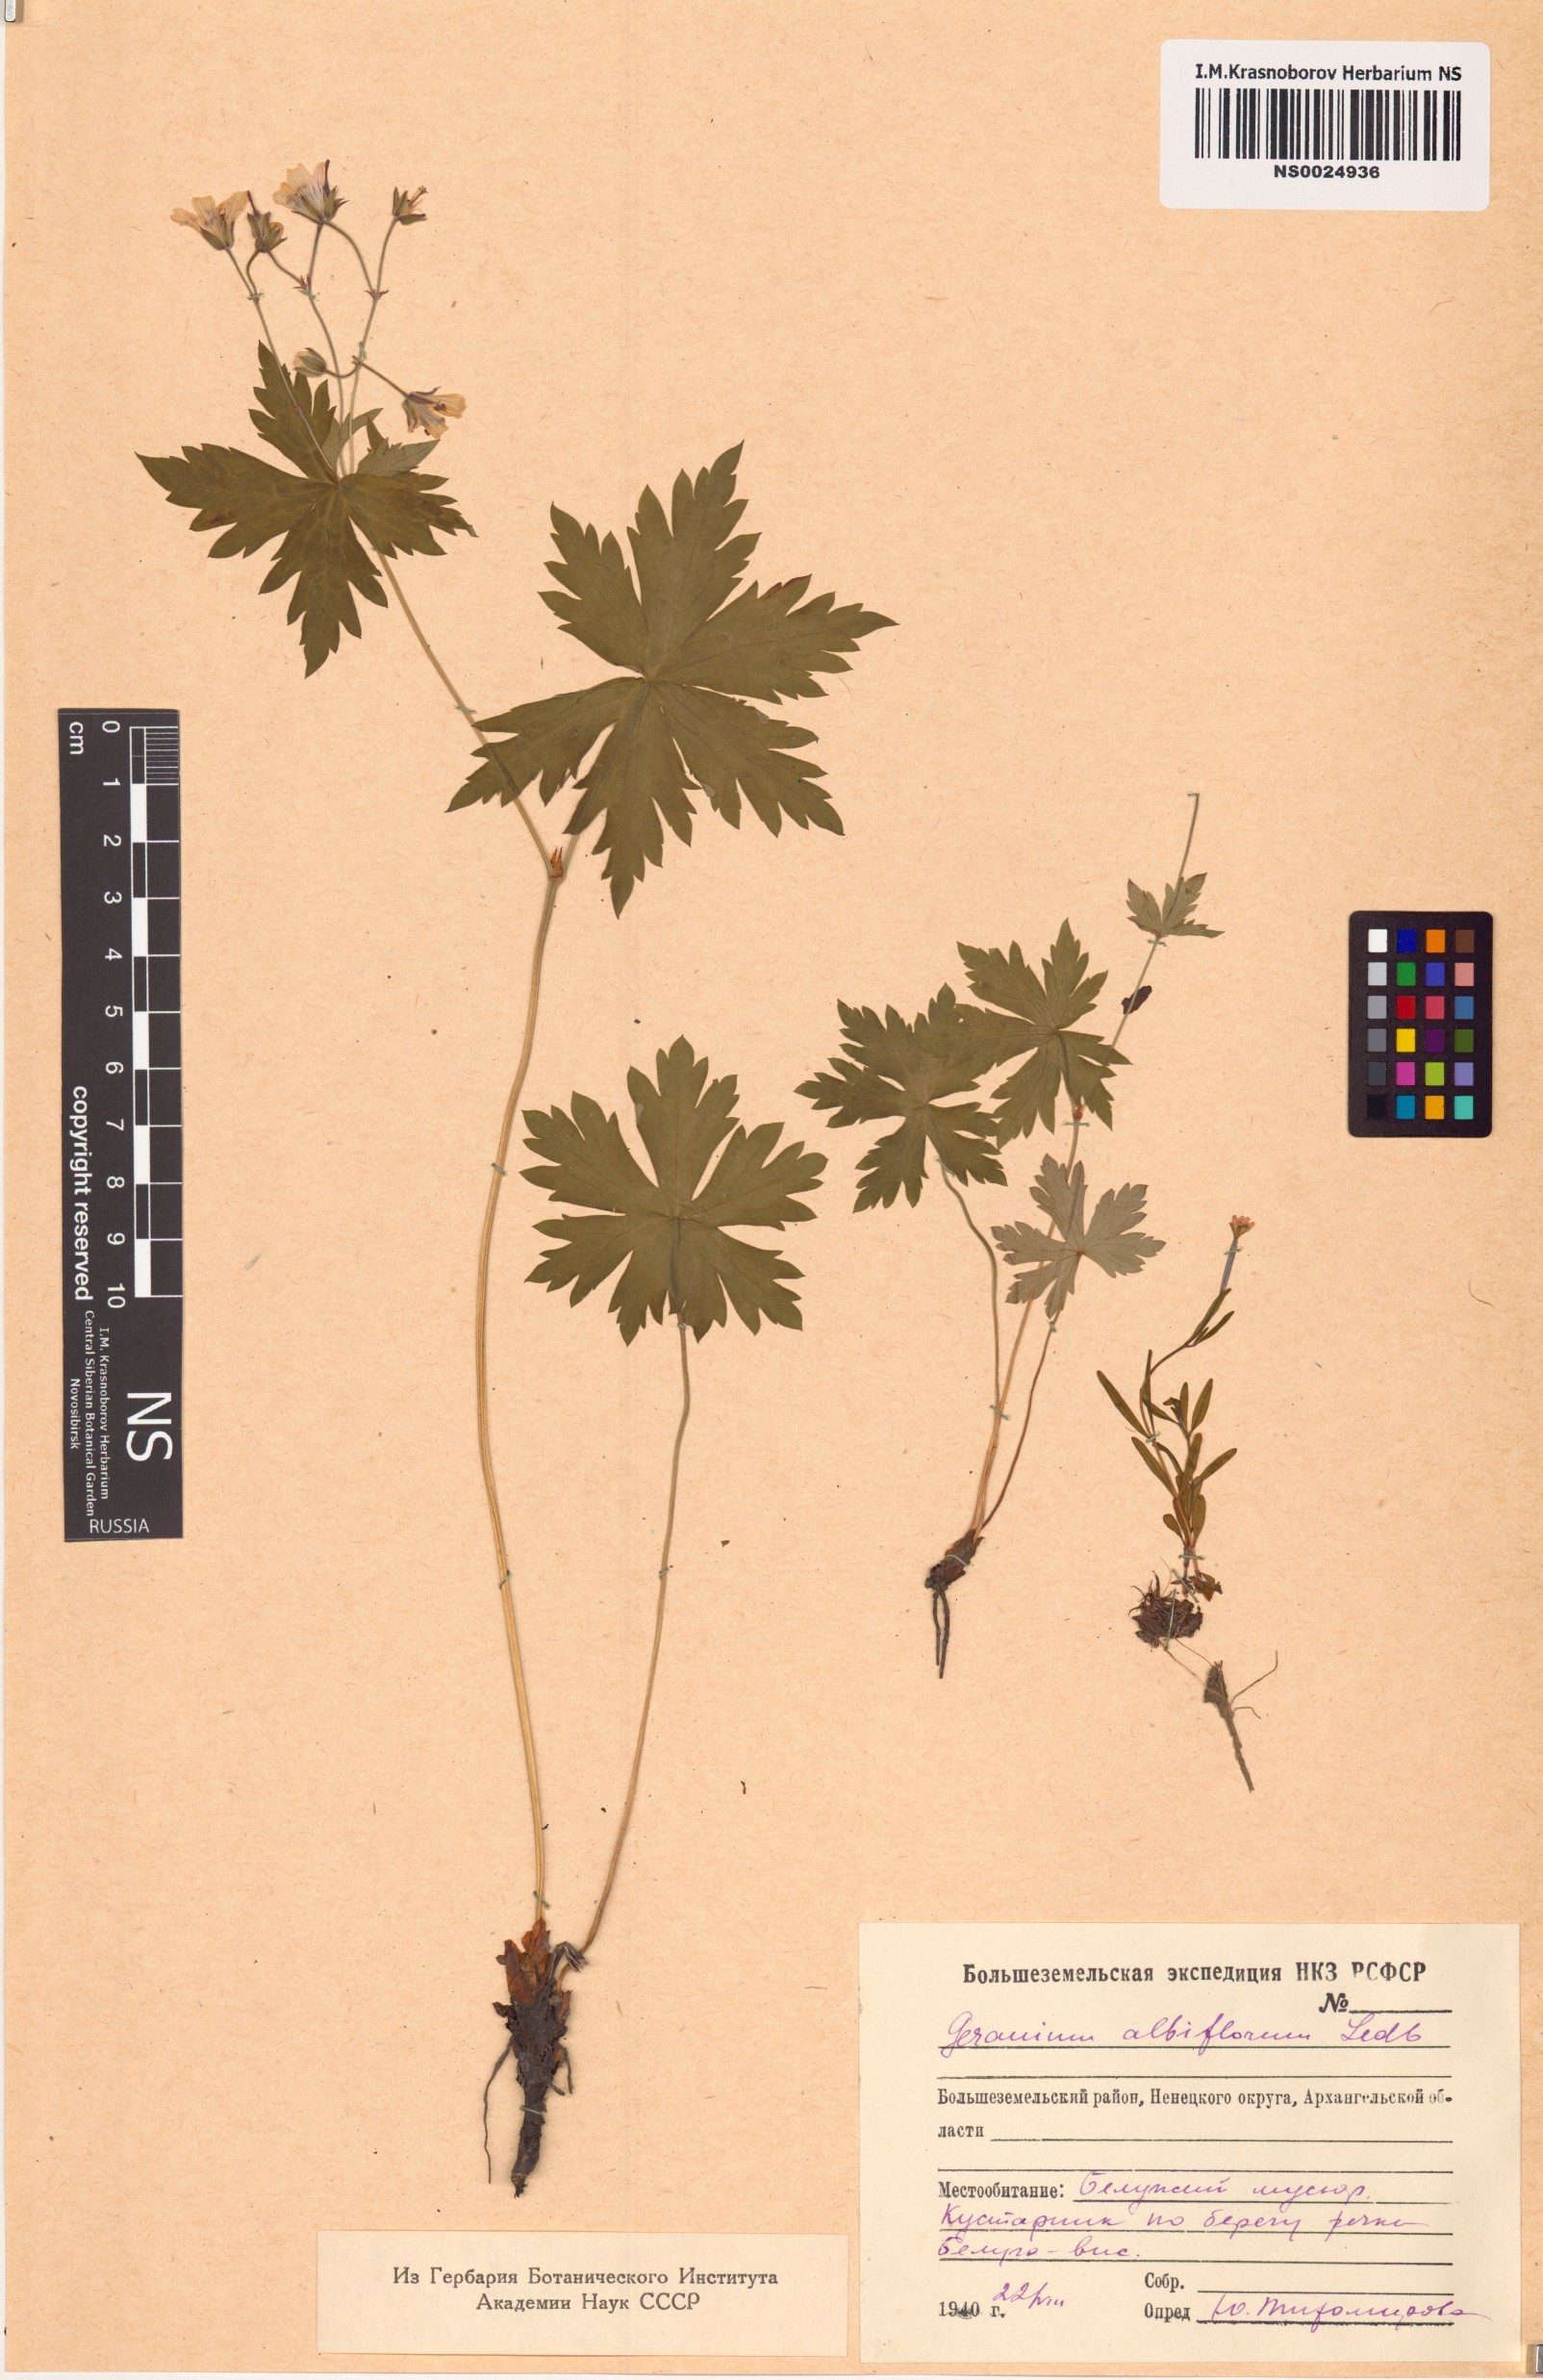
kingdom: Plantae
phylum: Tracheophyta
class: Magnoliopsida
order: Geraniales
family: Geraniaceae
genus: Geranium
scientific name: Geranium albiflorum
